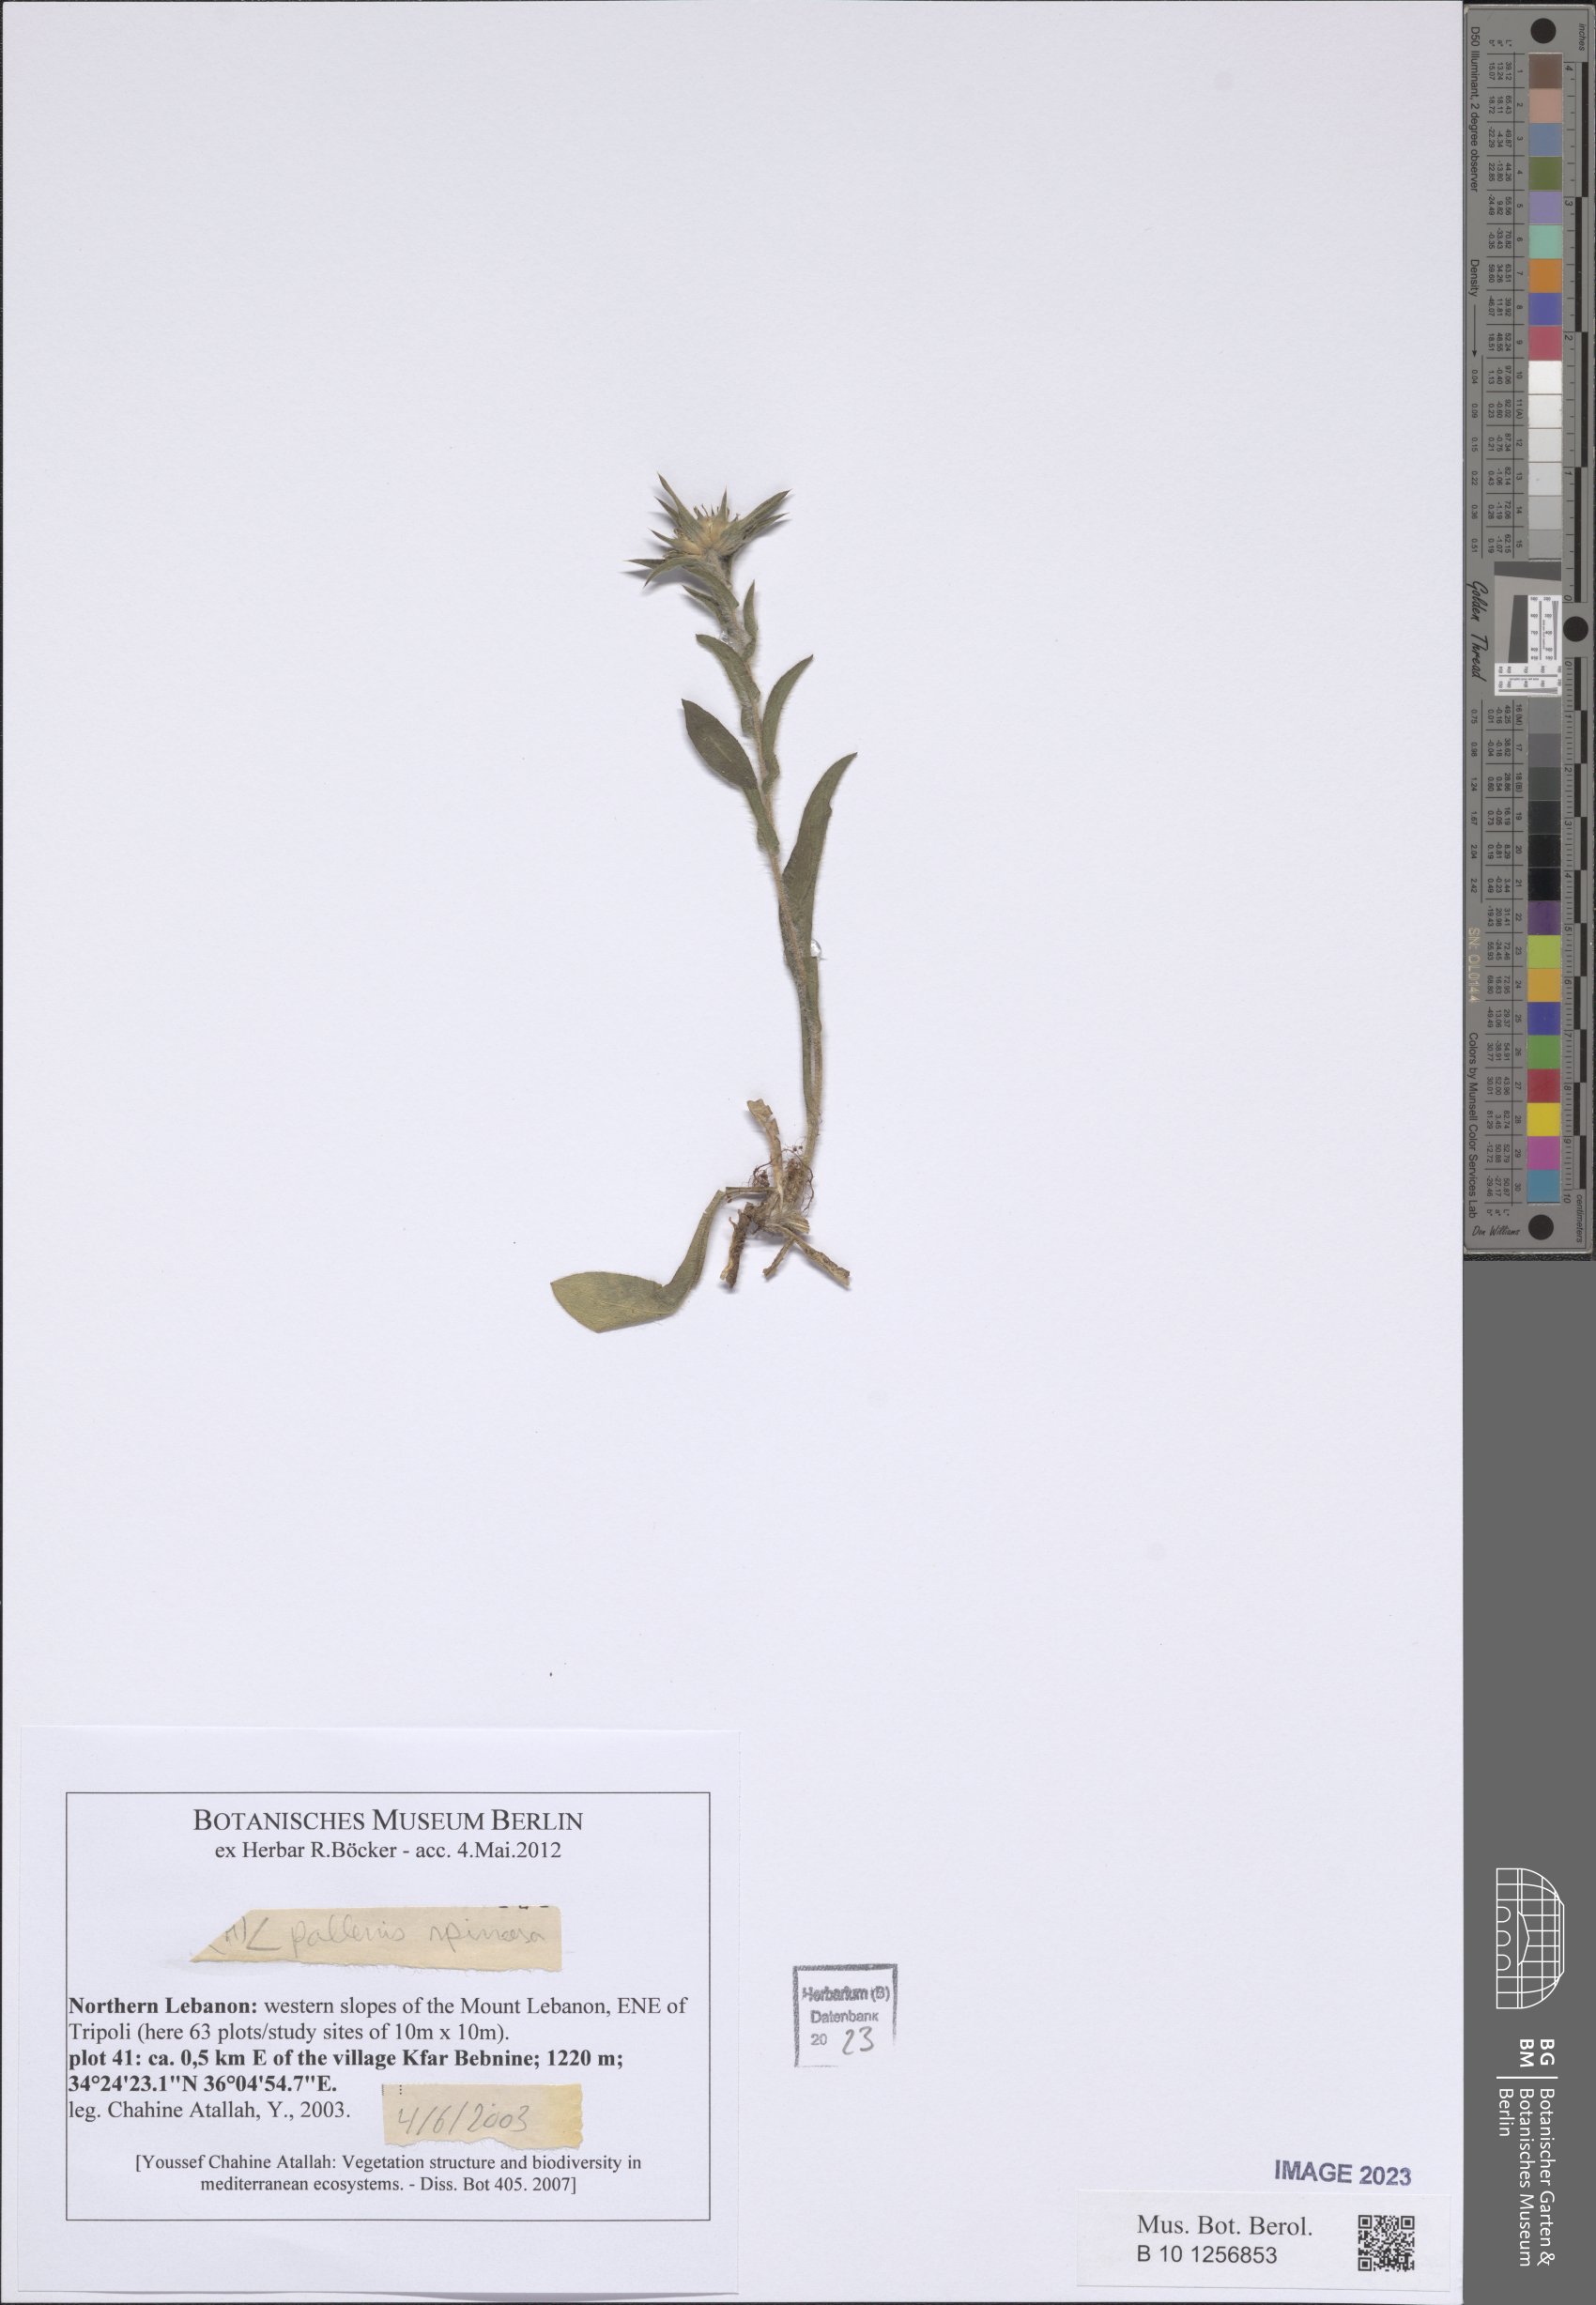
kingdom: Plantae
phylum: Tracheophyta
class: Magnoliopsida
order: Asterales
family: Asteraceae
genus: Pallenis
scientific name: Pallenis spinosa
